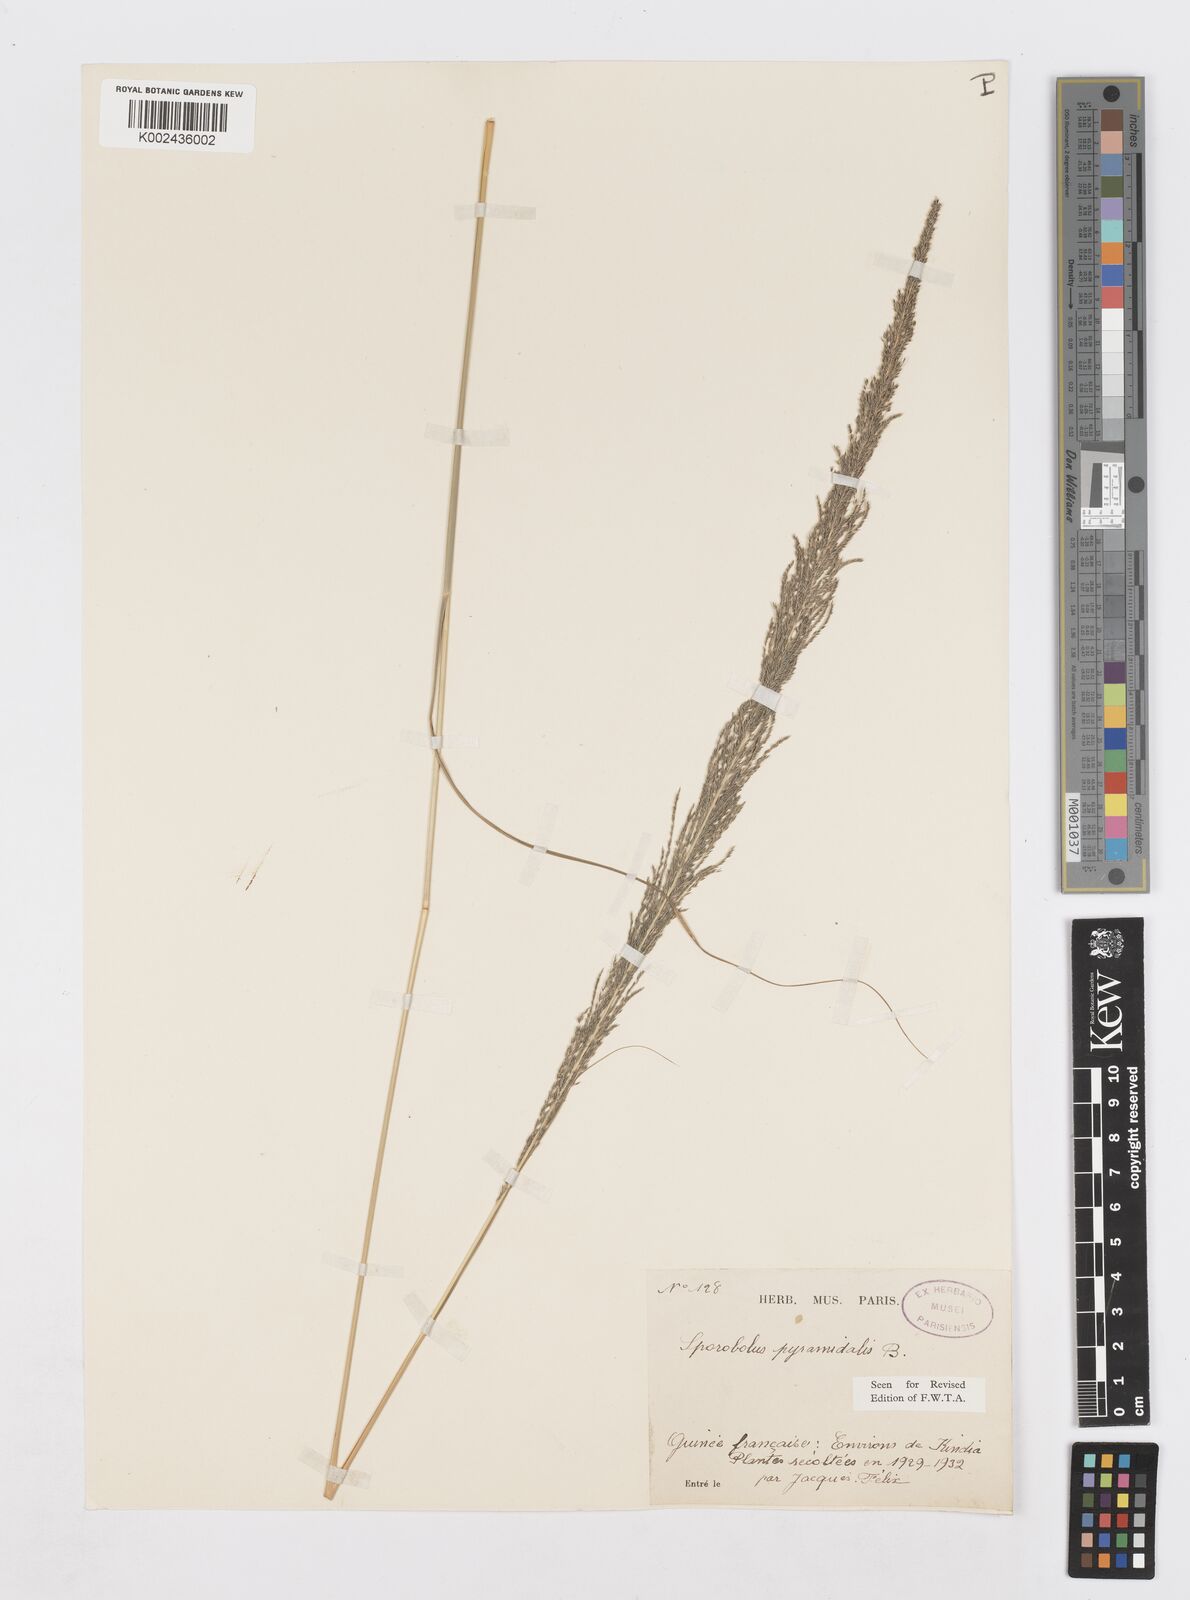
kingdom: Plantae
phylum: Tracheophyta
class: Liliopsida
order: Poales
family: Poaceae
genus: Sporobolus
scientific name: Sporobolus pyramidalis
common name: West indian dropseed
